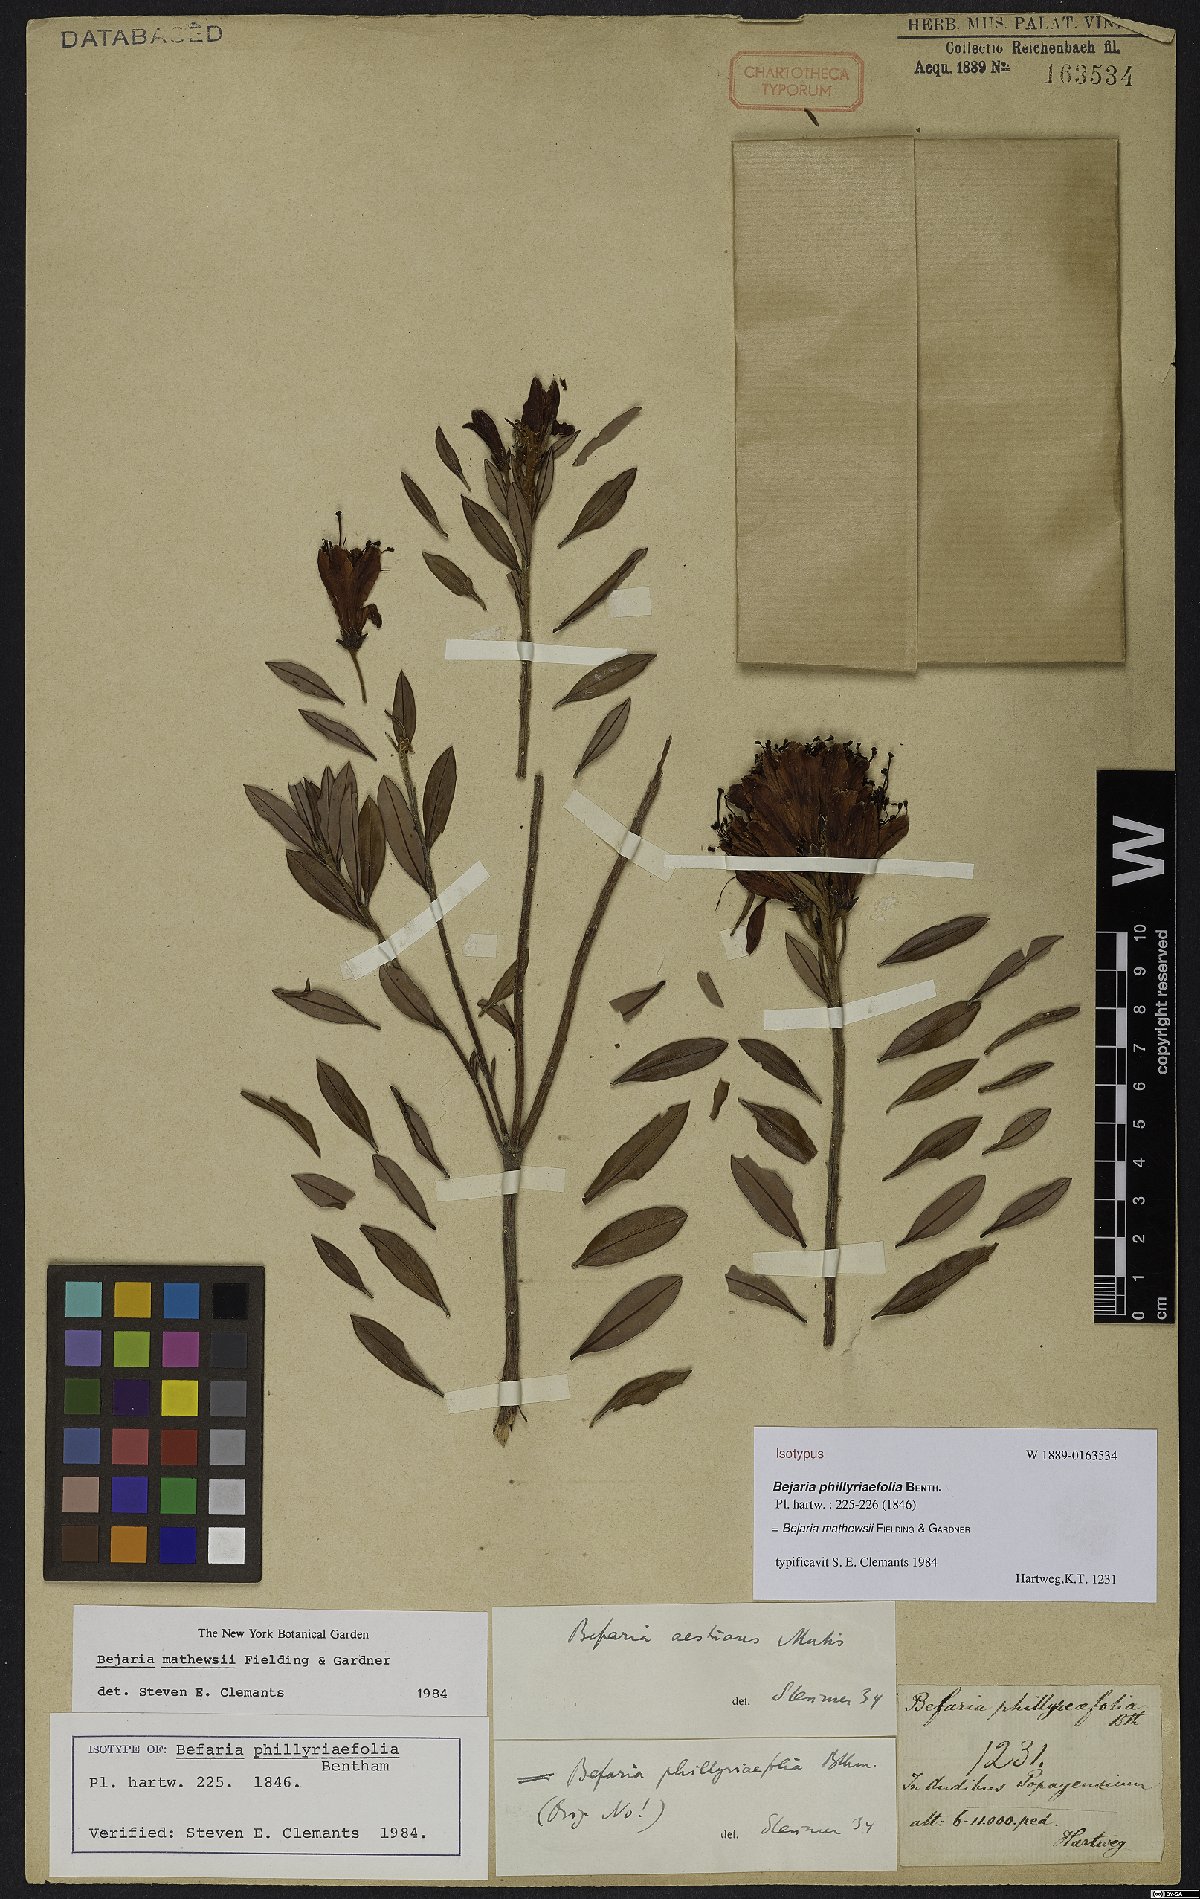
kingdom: Plantae
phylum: Tracheophyta
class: Magnoliopsida
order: Ericales
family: Ericaceae
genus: Bejaria
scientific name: Bejaria mathewsii
